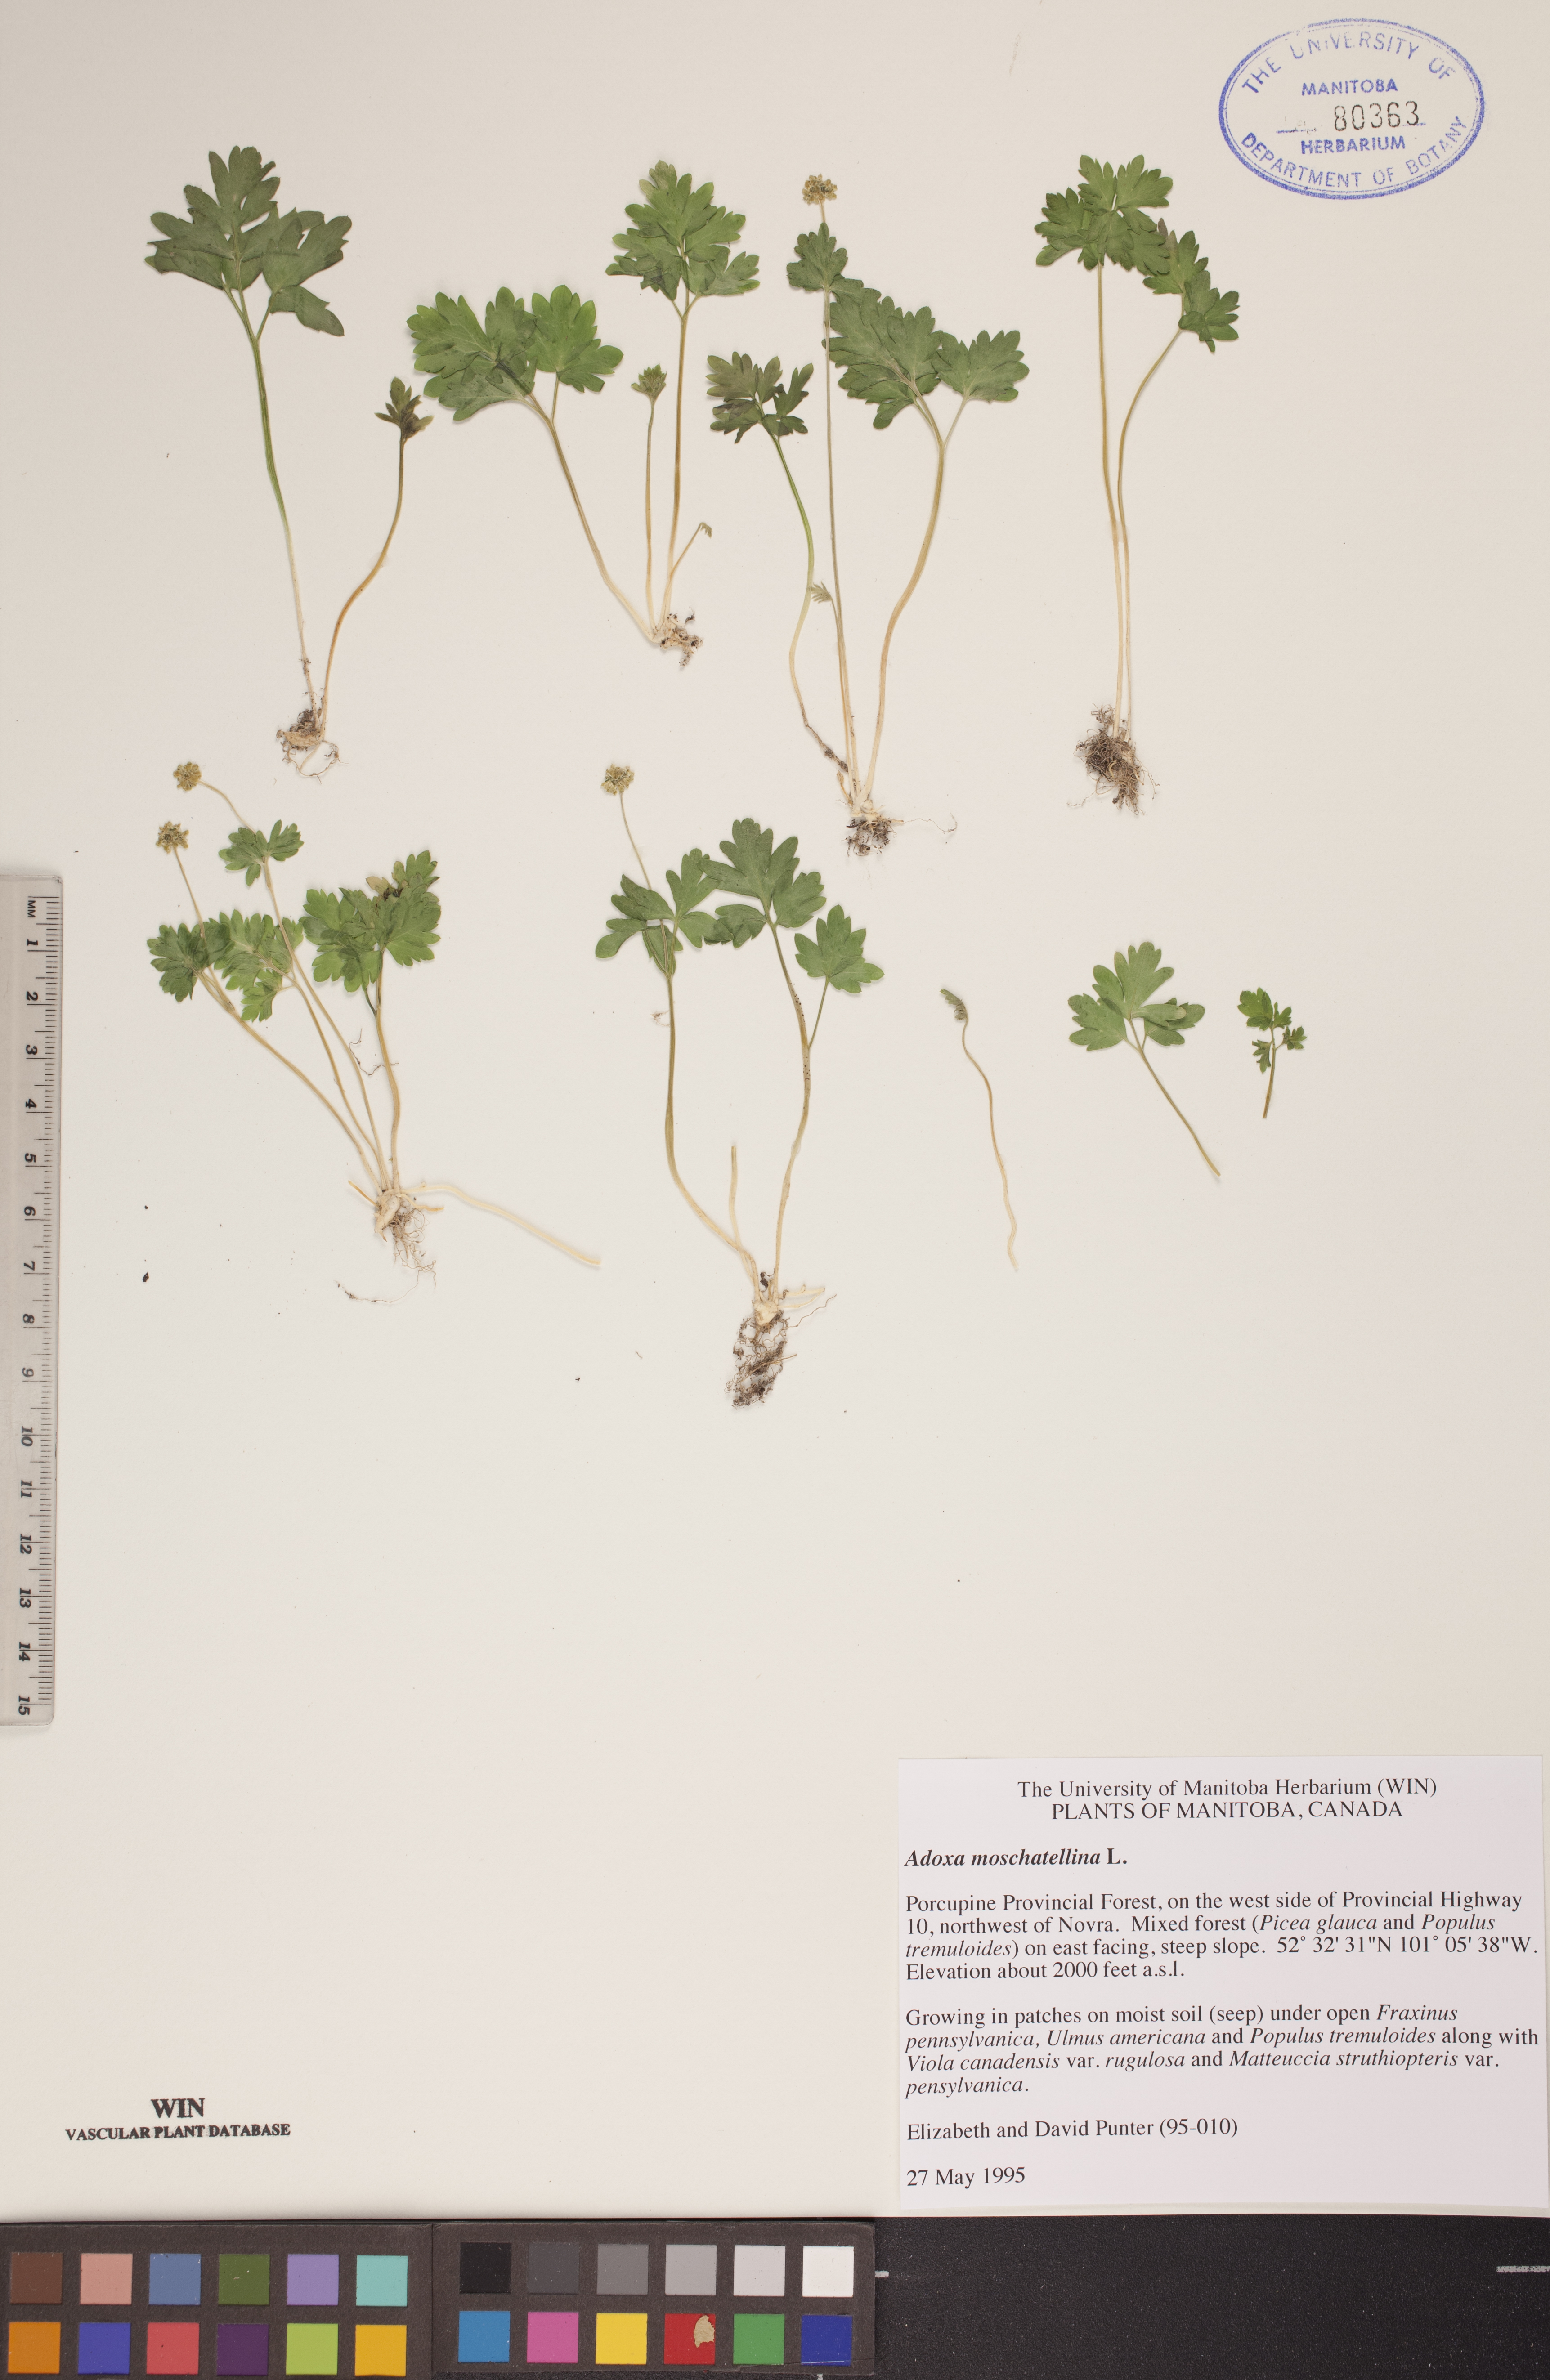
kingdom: Plantae
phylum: Tracheophyta
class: Magnoliopsida
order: Dipsacales
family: Viburnaceae
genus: Adoxa
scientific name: Adoxa moschatellina
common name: Moschatel
